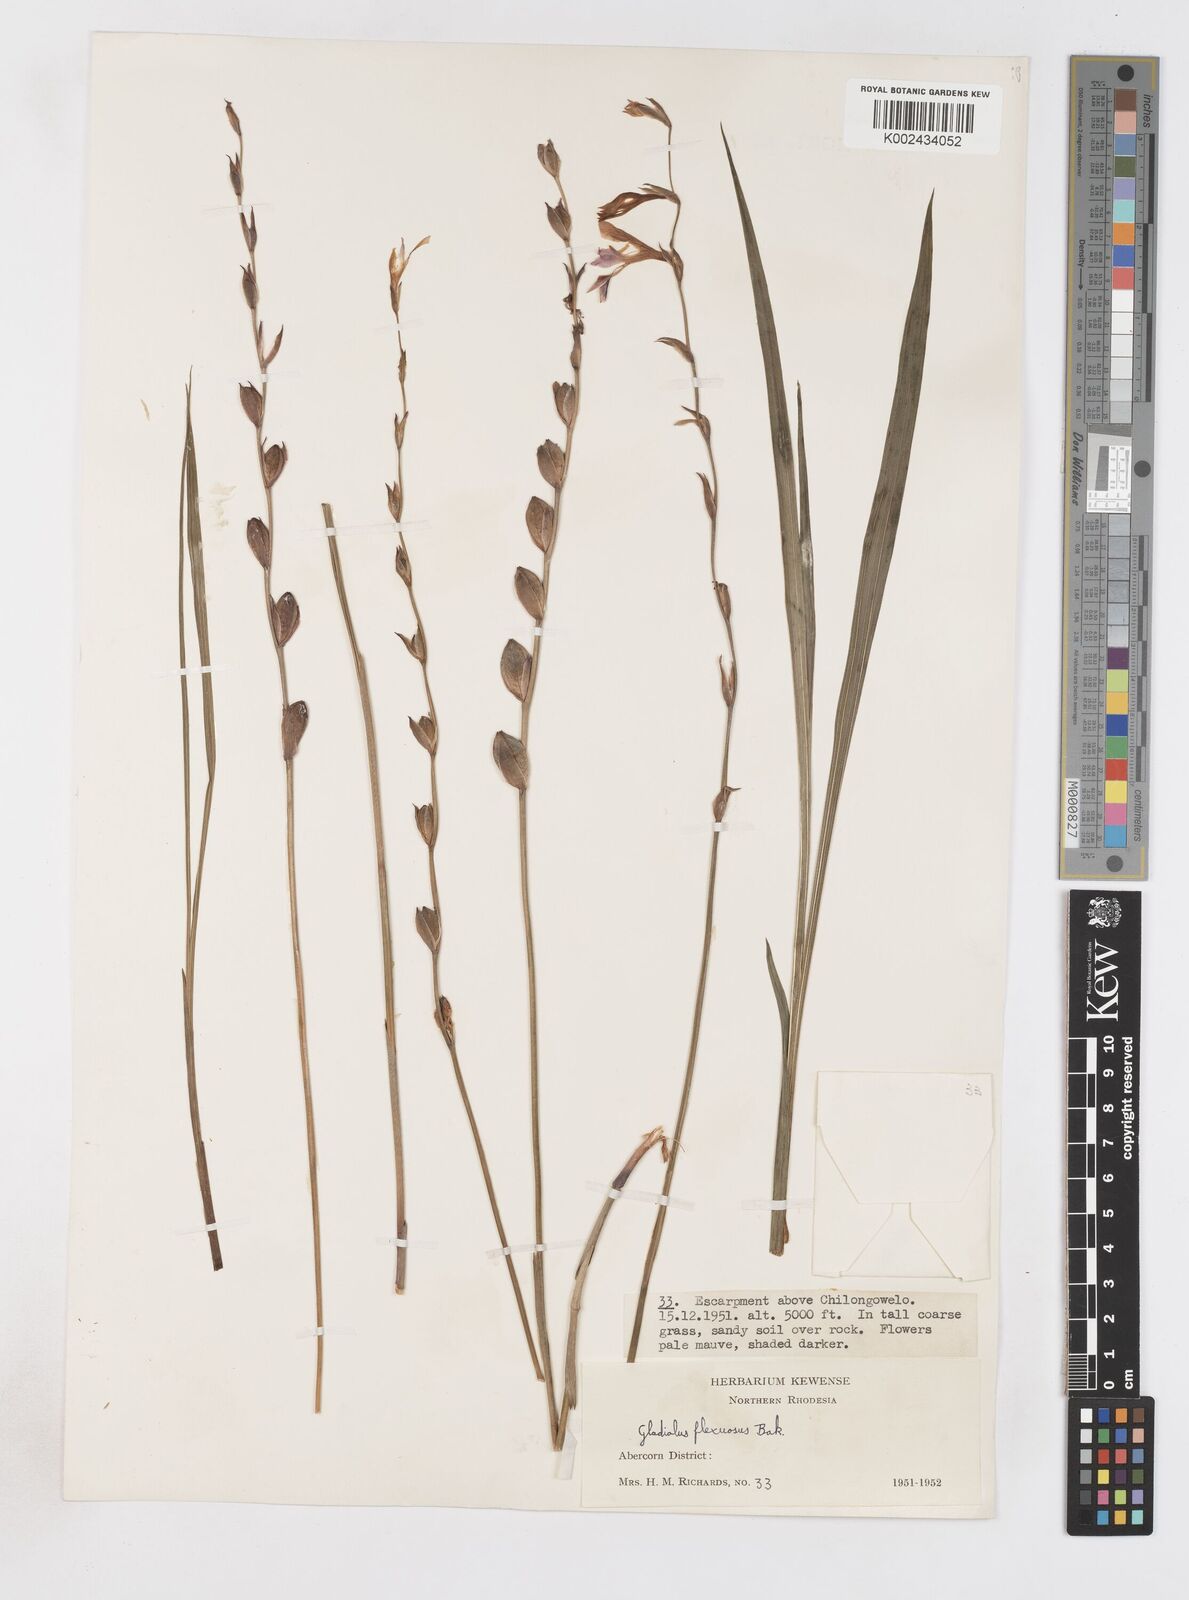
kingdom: Plantae
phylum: Tracheophyta
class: Liliopsida
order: Asparagales
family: Iridaceae
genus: Gladiolus
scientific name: Gladiolus atropurpureus
